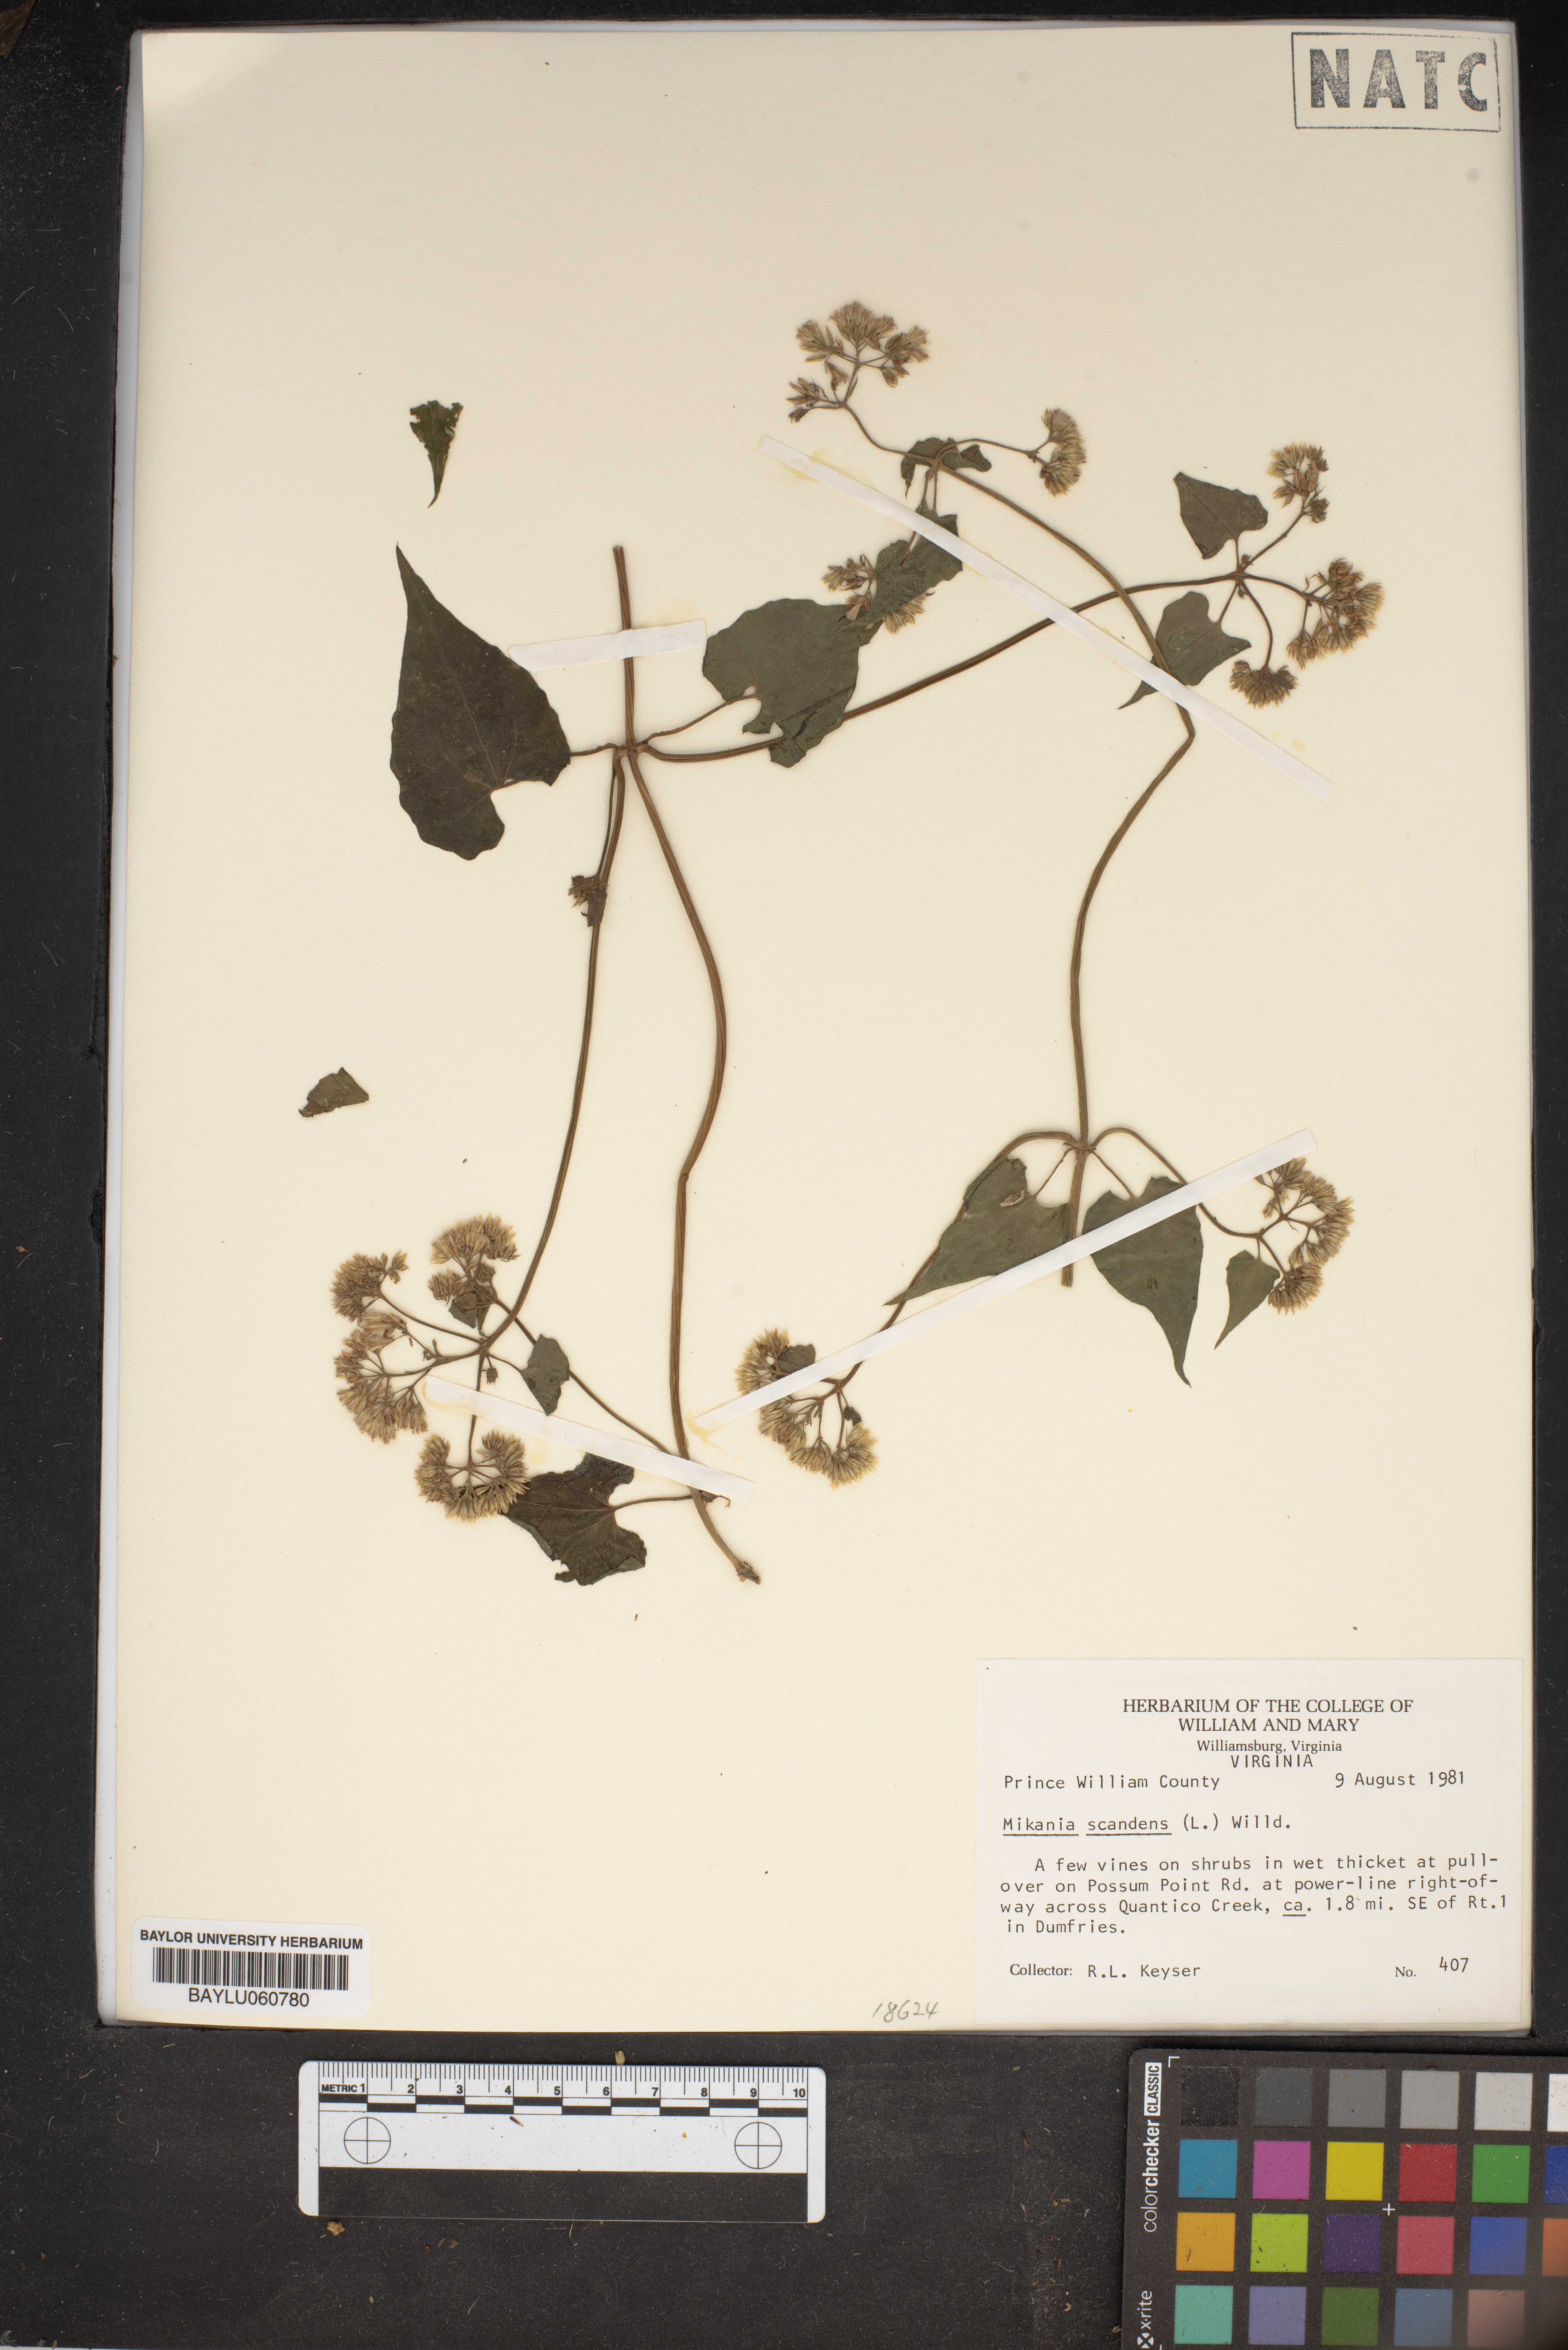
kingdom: Plantae
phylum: Tracheophyta
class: Magnoliopsida
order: Asterales
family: Asteraceae
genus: Mikania
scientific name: Mikania scandens
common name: Climbing hempvine
